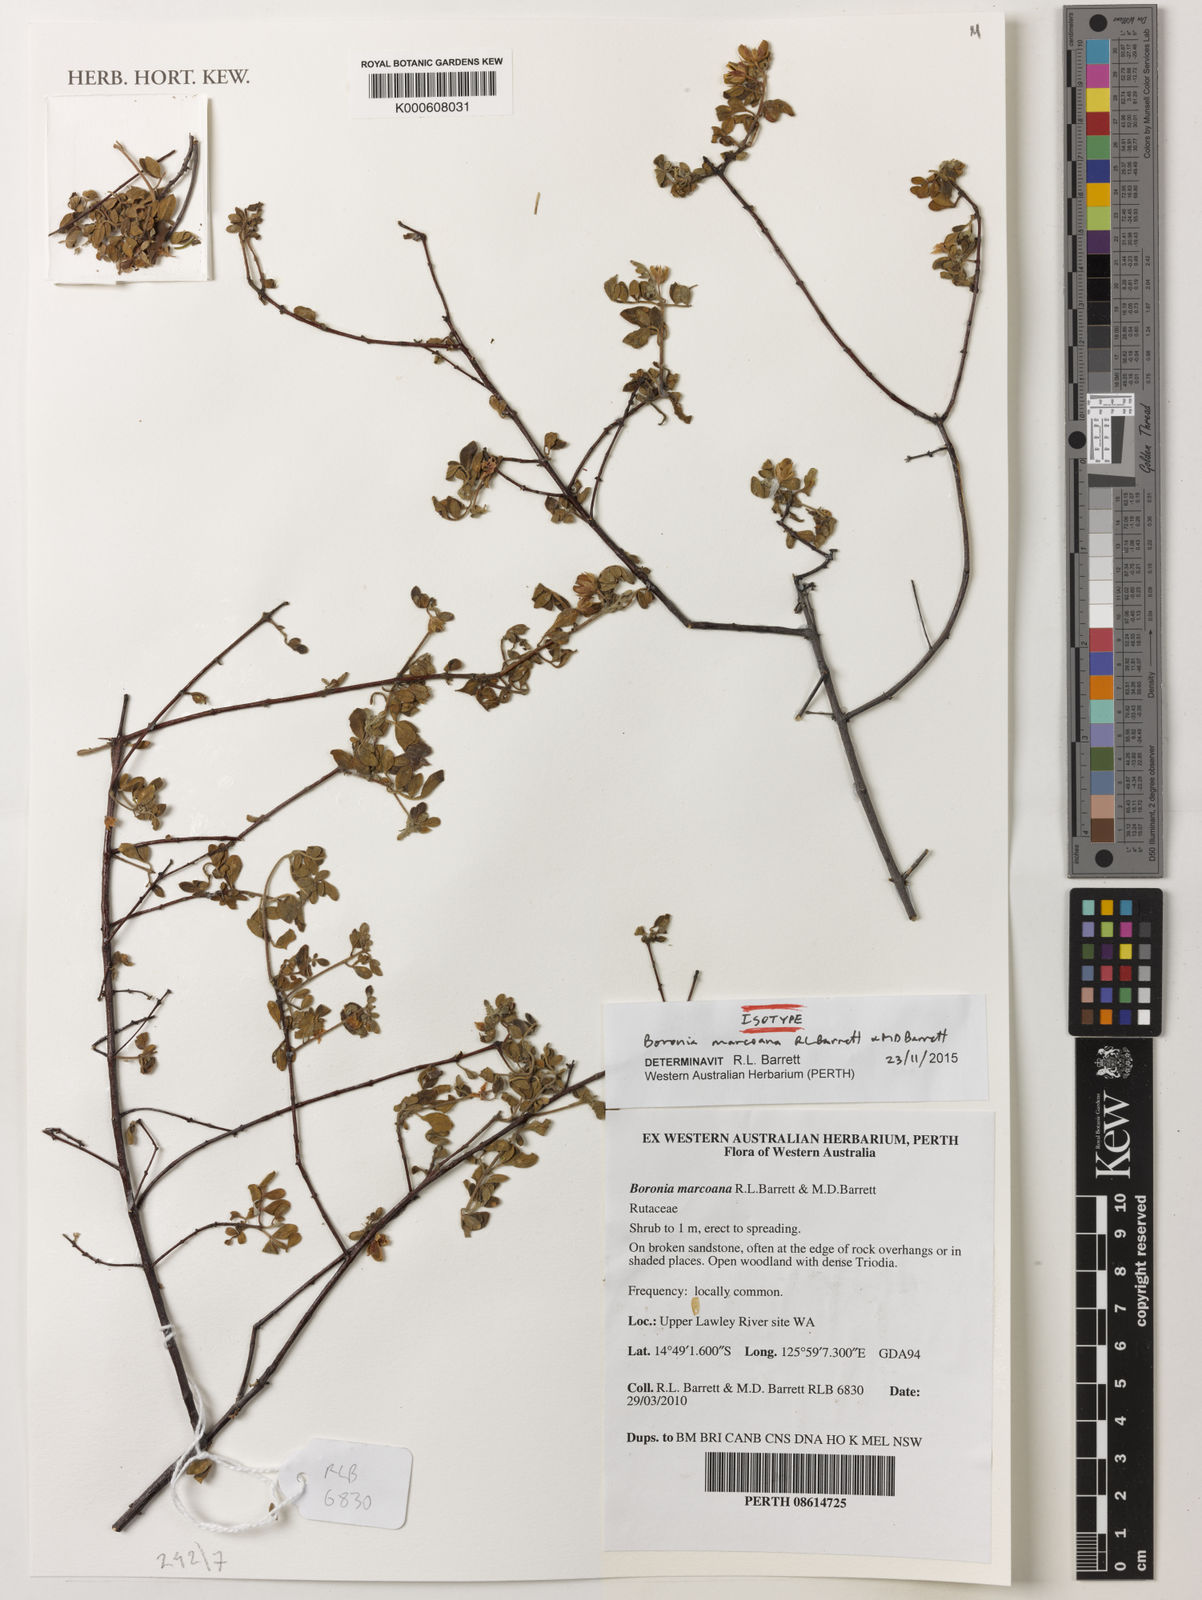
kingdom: Plantae
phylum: Tracheophyta
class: Magnoliopsida
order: Sapindales
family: Rutaceae
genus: Boronia
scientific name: Boronia marcoana
